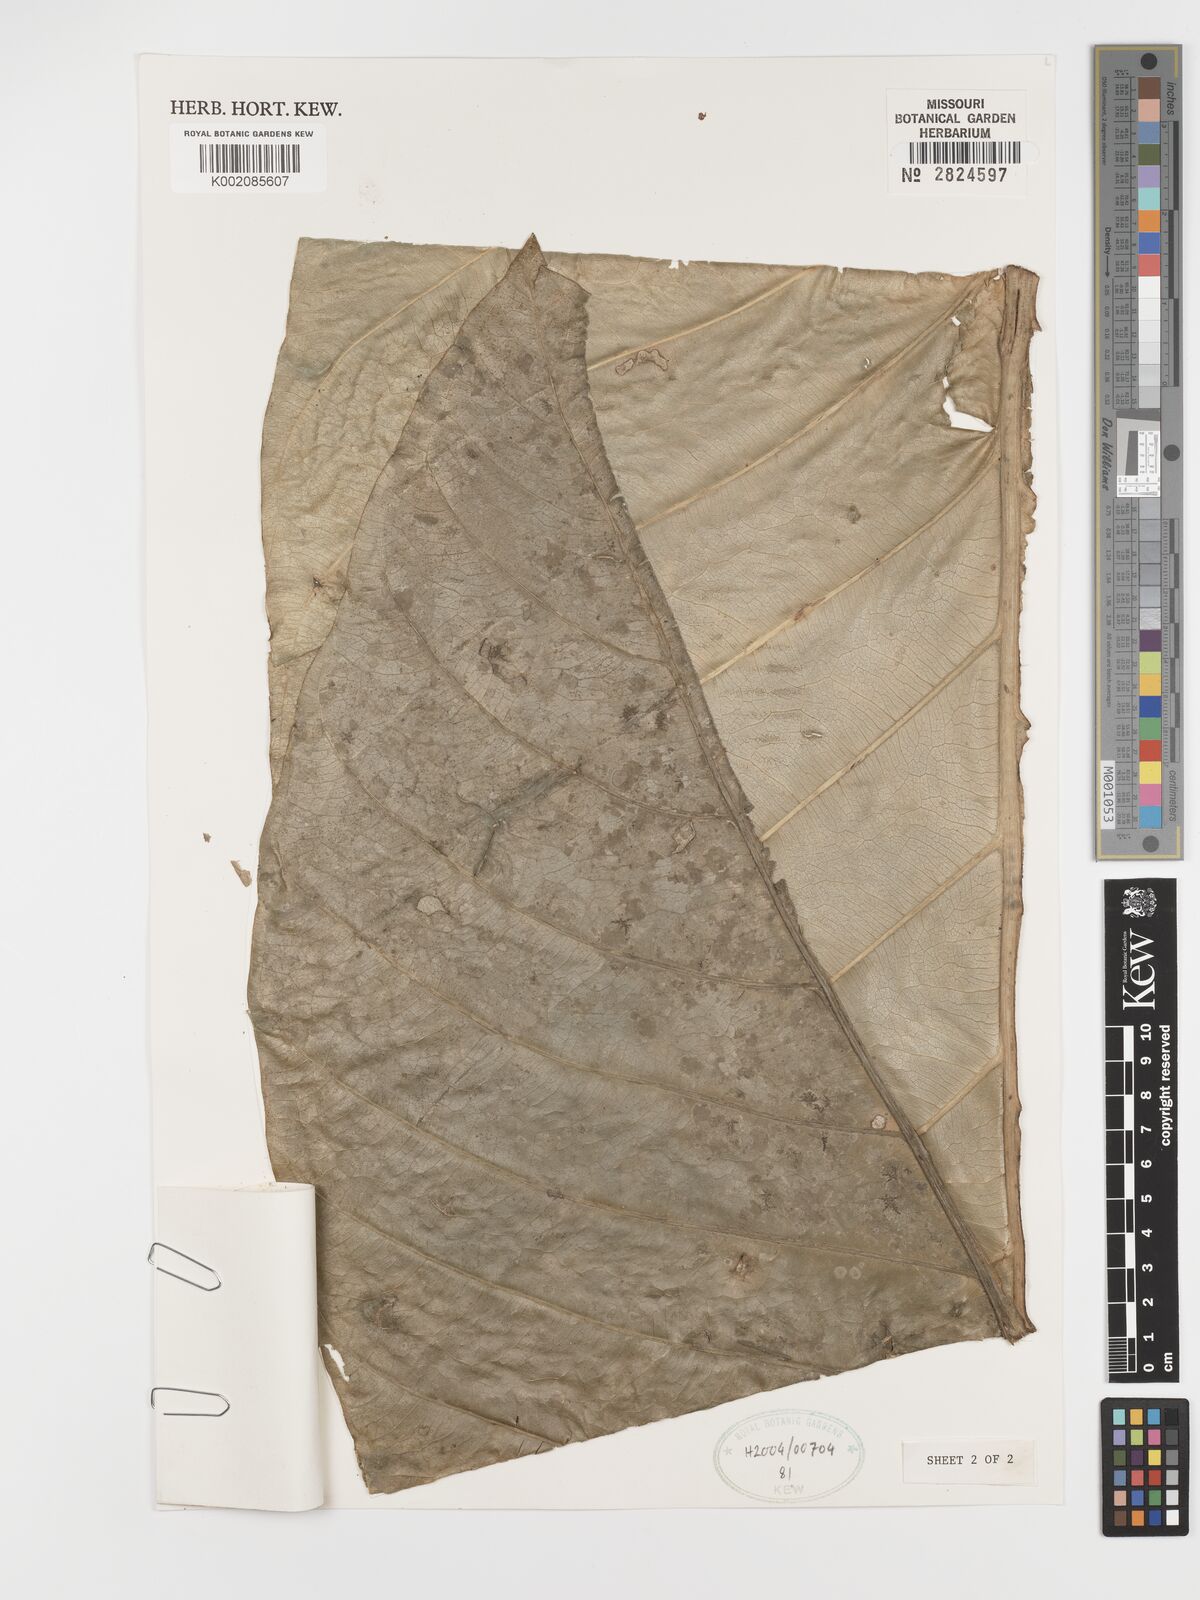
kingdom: Plantae
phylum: Tracheophyta
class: Liliopsida
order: Alismatales
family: Araceae
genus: Anthurium
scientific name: Anthurium asplundii
